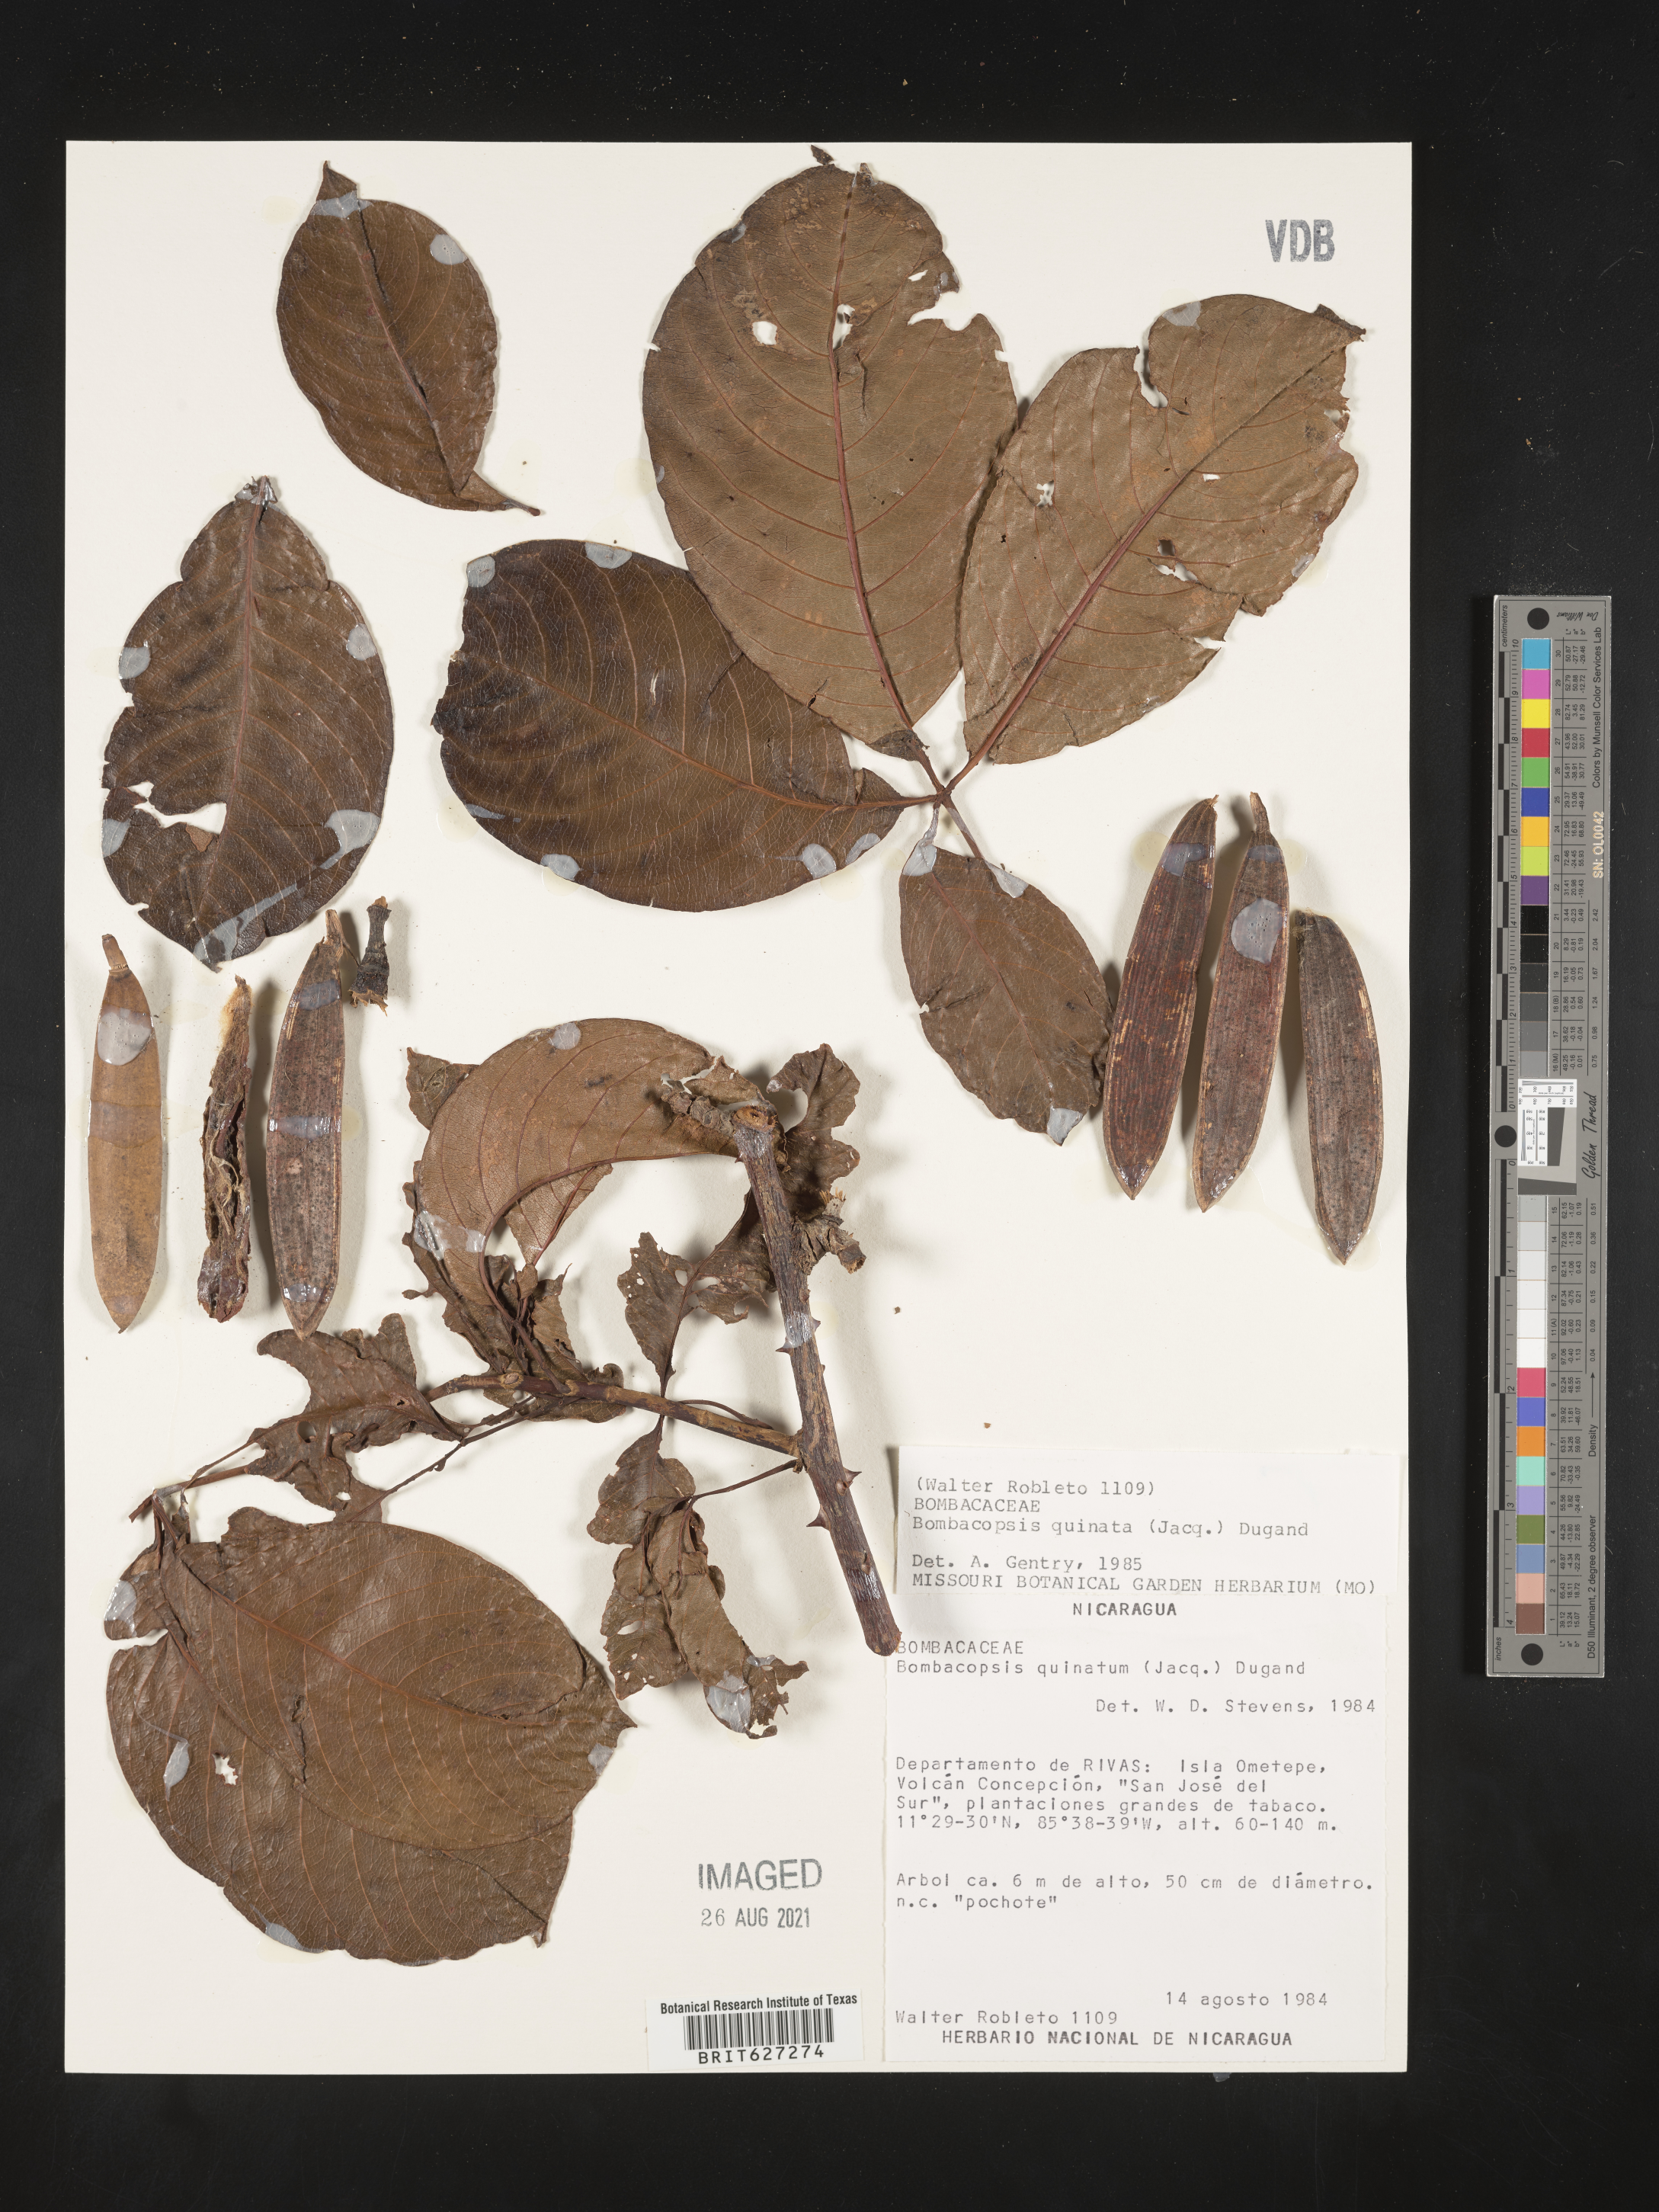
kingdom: Plantae
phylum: Tracheophyta
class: Magnoliopsida
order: Malvales
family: Malvaceae
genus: Pachira
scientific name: Pachira
